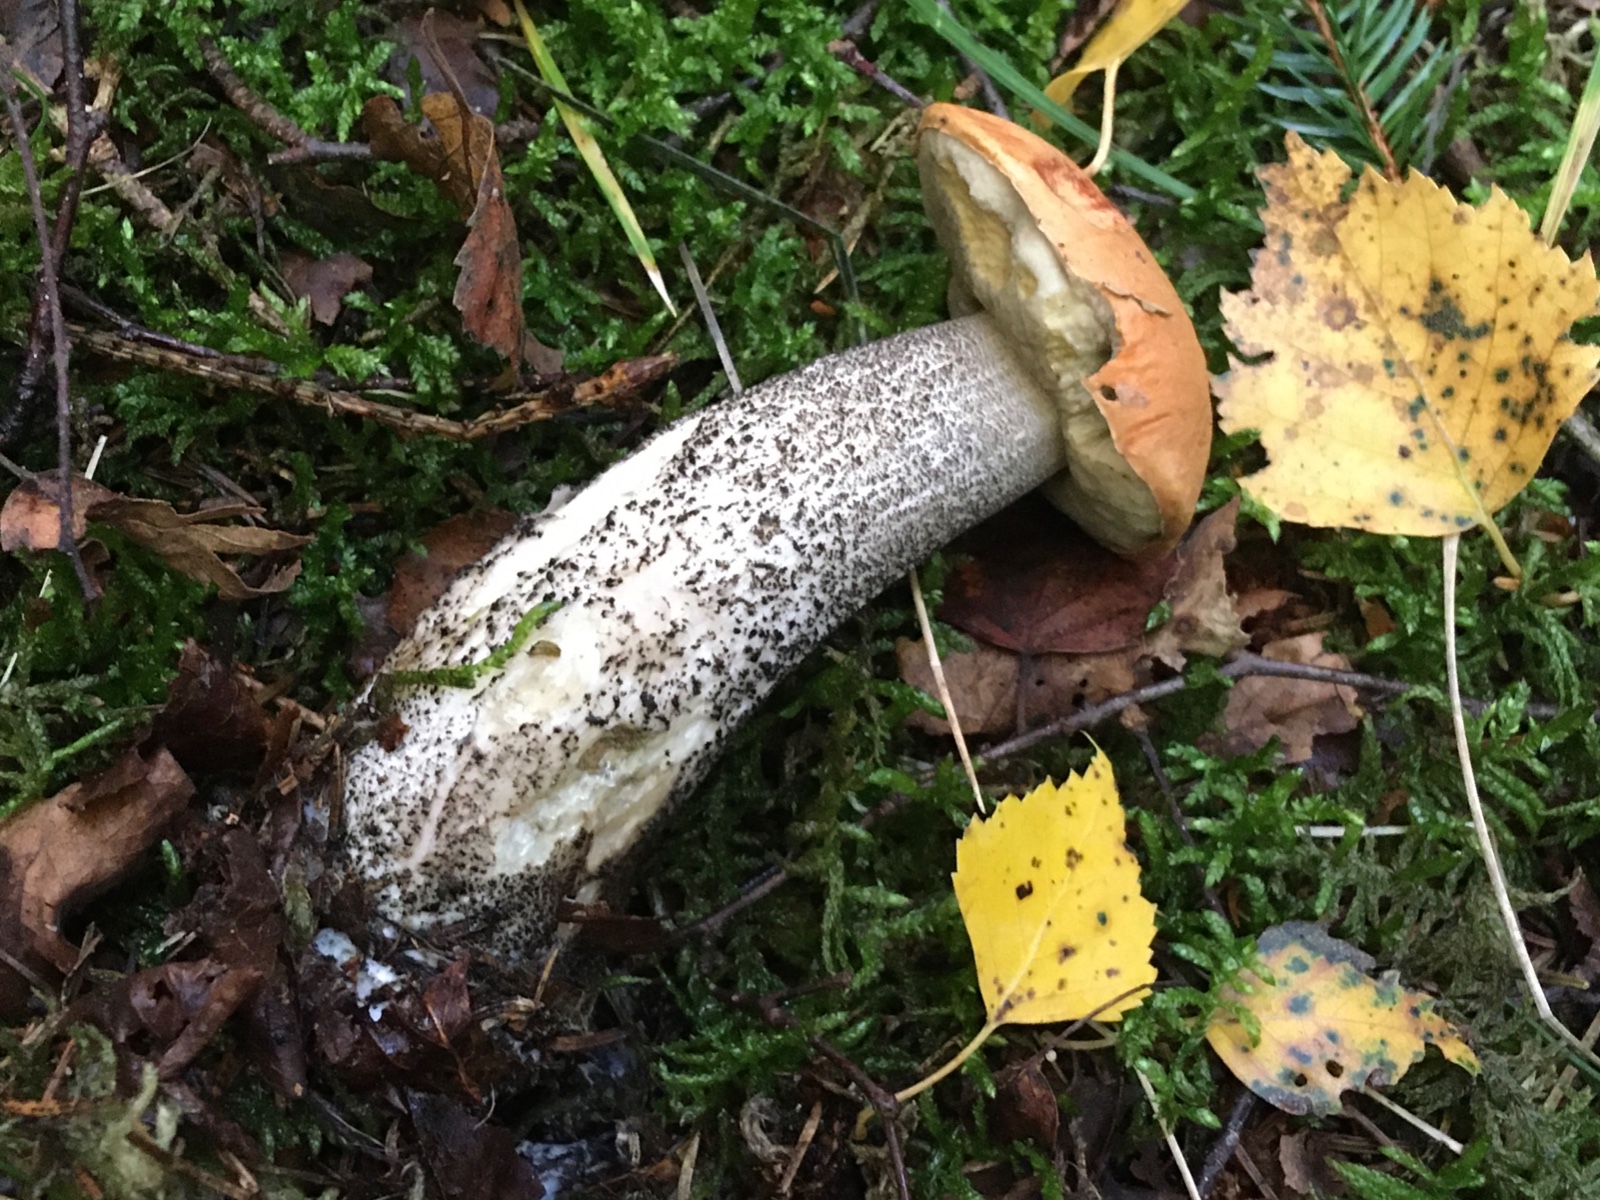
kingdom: Fungi
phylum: Basidiomycota
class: Agaricomycetes
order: Boletales
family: Boletaceae
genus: Leccinum
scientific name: Leccinum versipelle
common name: orange skælrørhat
